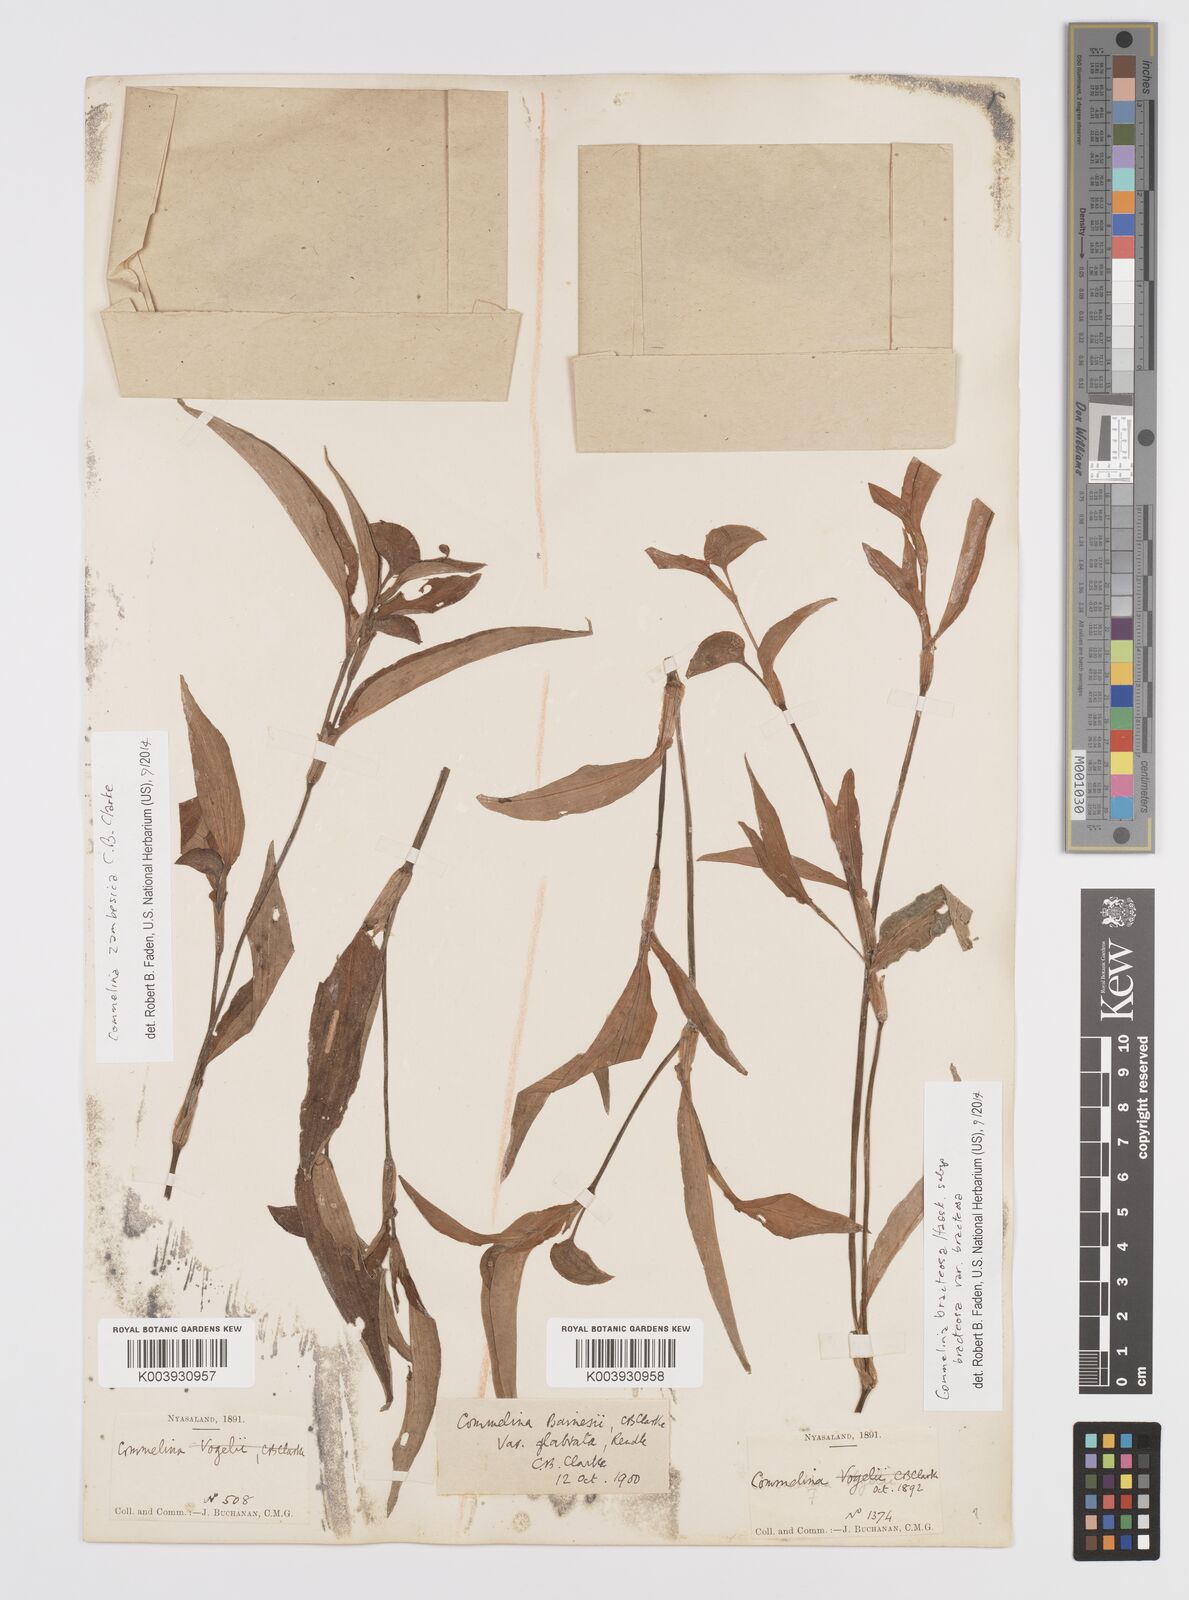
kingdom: Plantae
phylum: Tracheophyta
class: Liliopsida
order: Commelinales
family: Commelinaceae
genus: Commelina
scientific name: Commelina bracteosa
